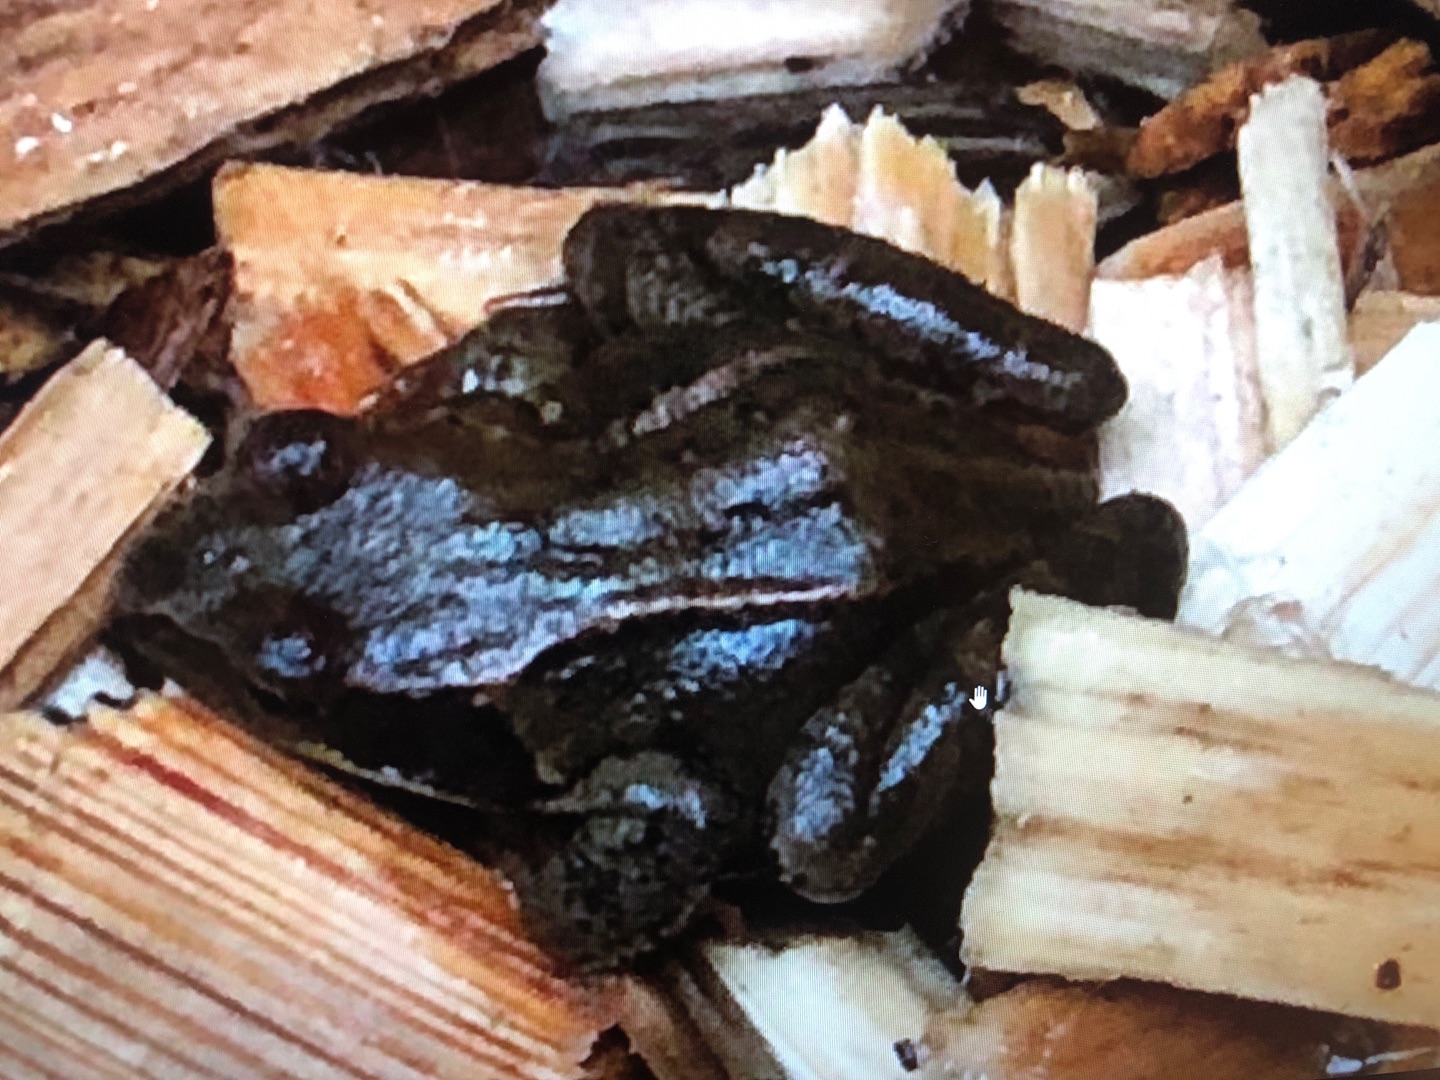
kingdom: Animalia
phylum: Chordata
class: Amphibia
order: Anura
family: Ranidae
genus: Rana
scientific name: Rana temporaria
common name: Butsnudet frø
